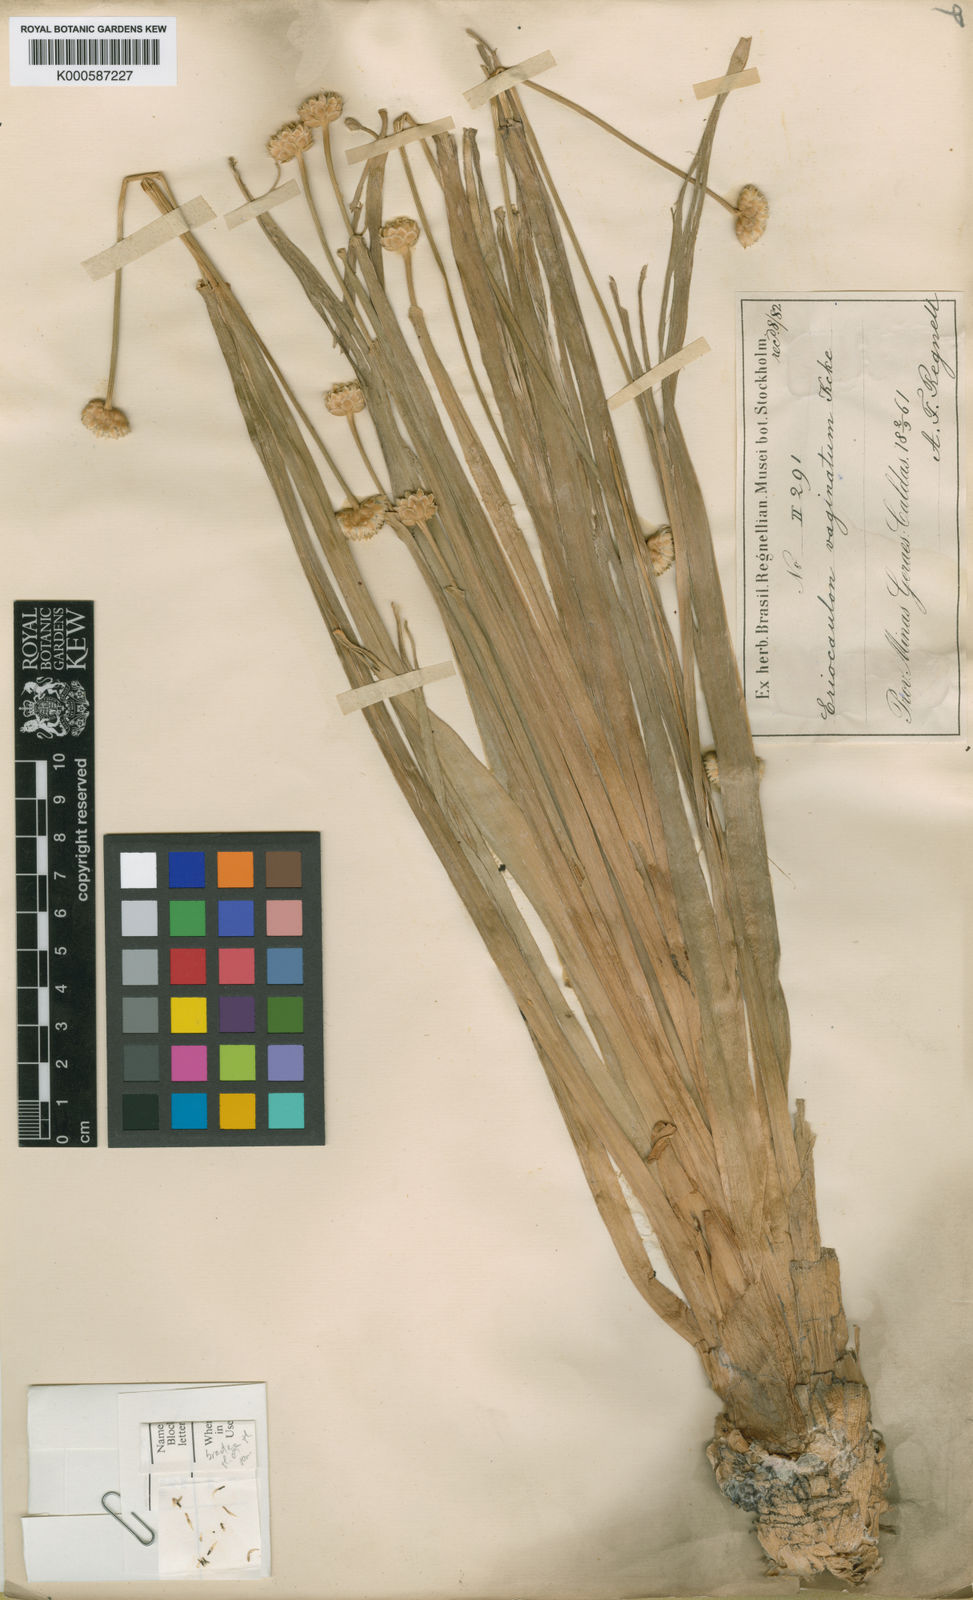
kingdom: Plantae
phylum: Tracheophyta
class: Liliopsida
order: Poales
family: Eriocaulaceae
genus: Eriocaulon
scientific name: Eriocaulon
